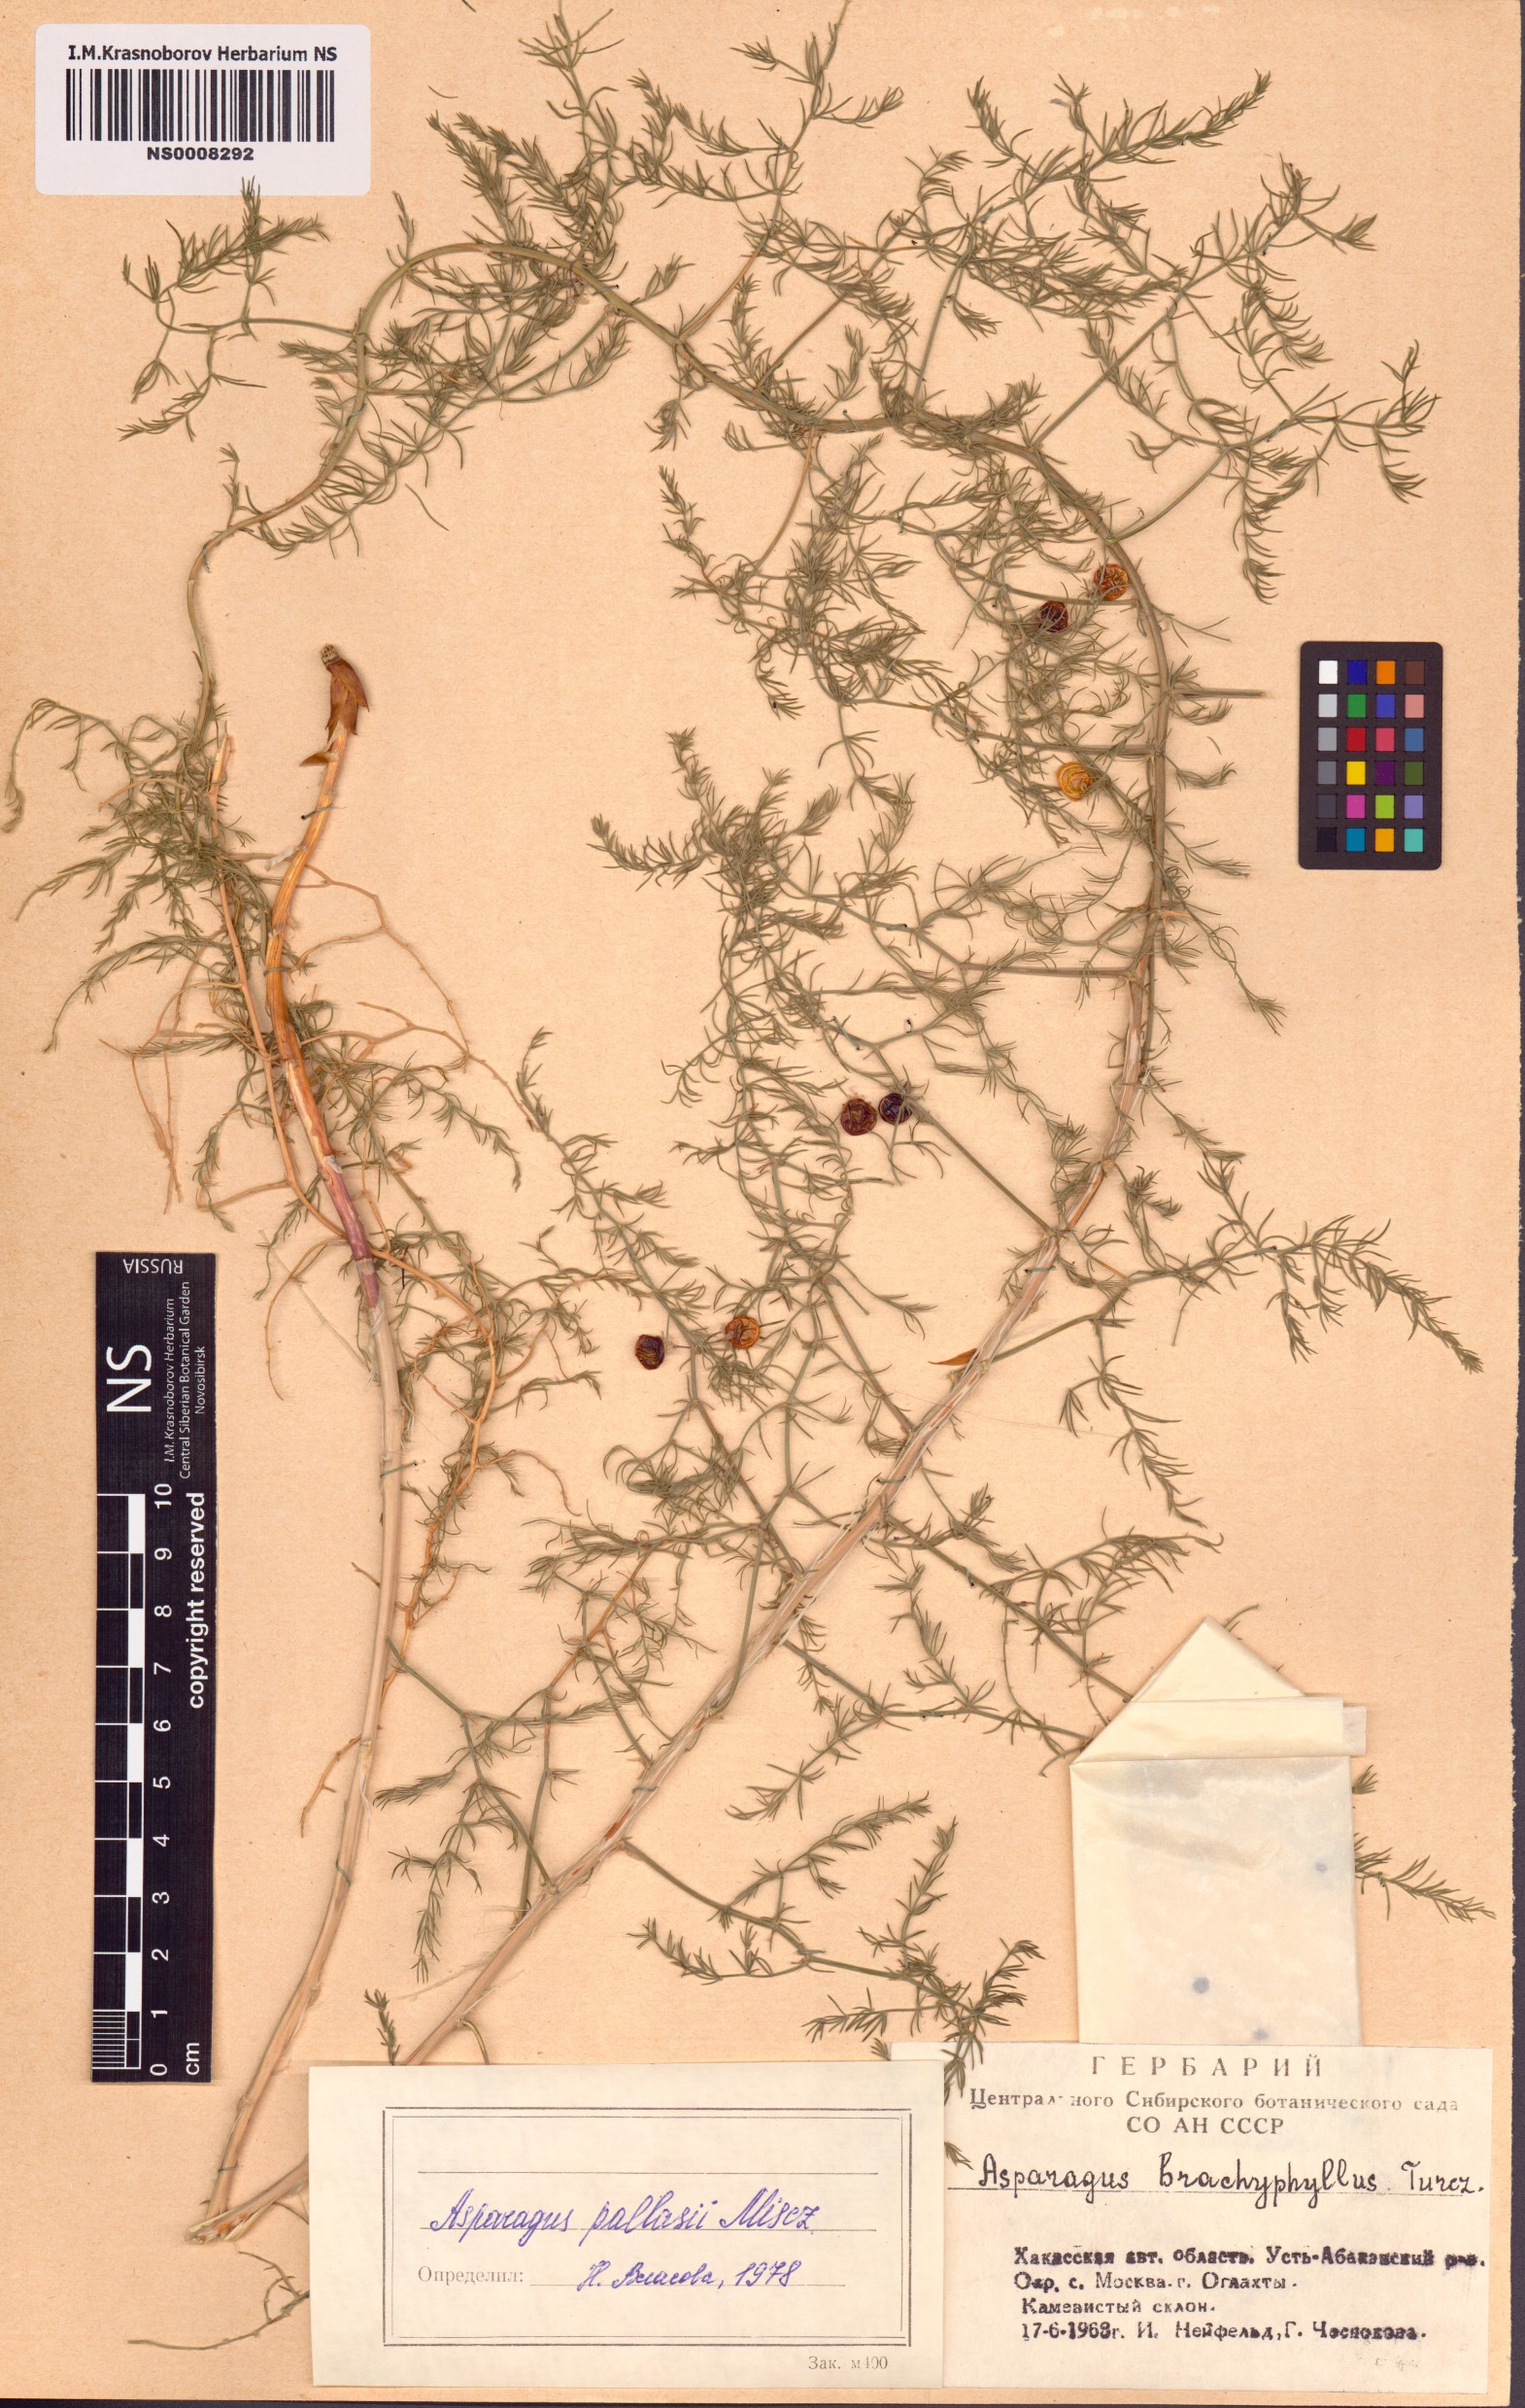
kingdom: Plantae
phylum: Tracheophyta
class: Liliopsida
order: Asparagales
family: Asparagaceae
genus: Asparagus
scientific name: Asparagus pallasii
